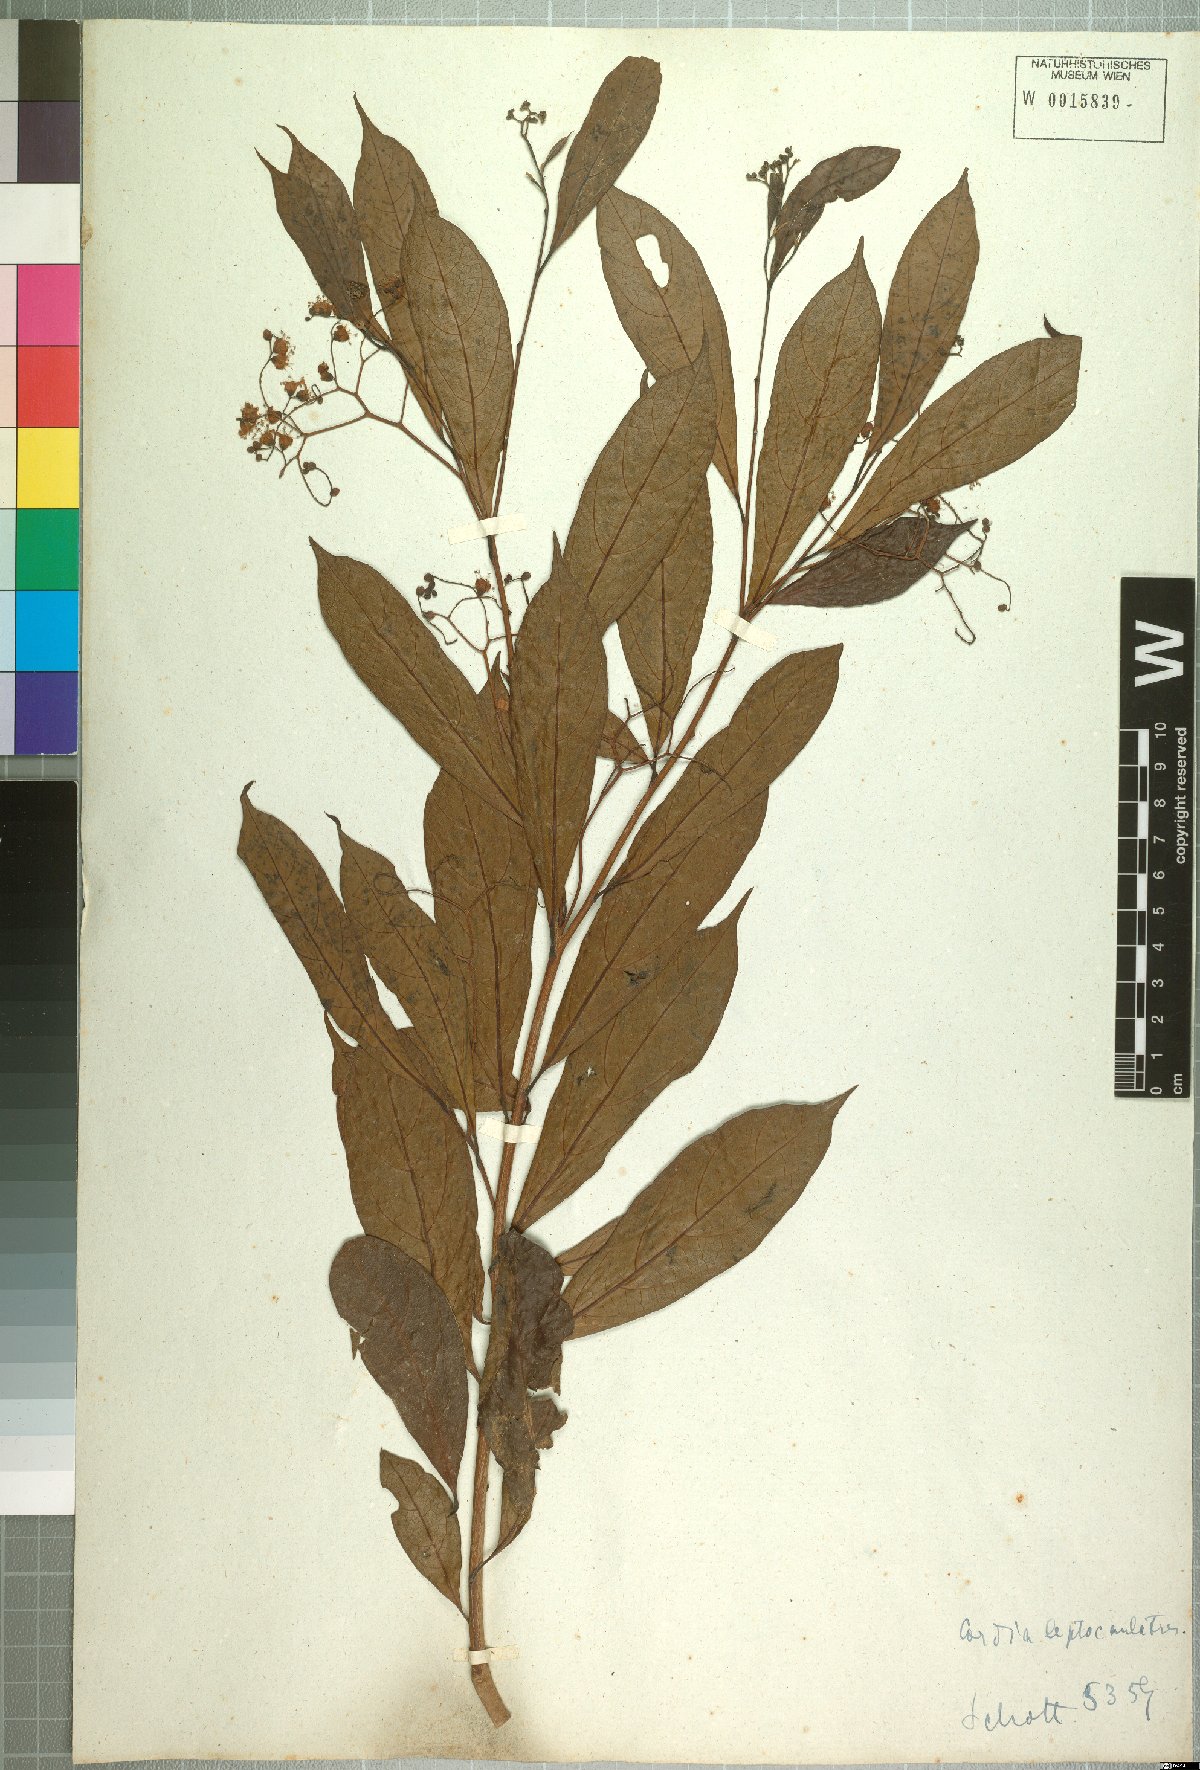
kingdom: Plantae
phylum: Tracheophyta
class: Magnoliopsida
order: Boraginales
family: Cordiaceae
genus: Cordia
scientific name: Cordia ecalyculata
